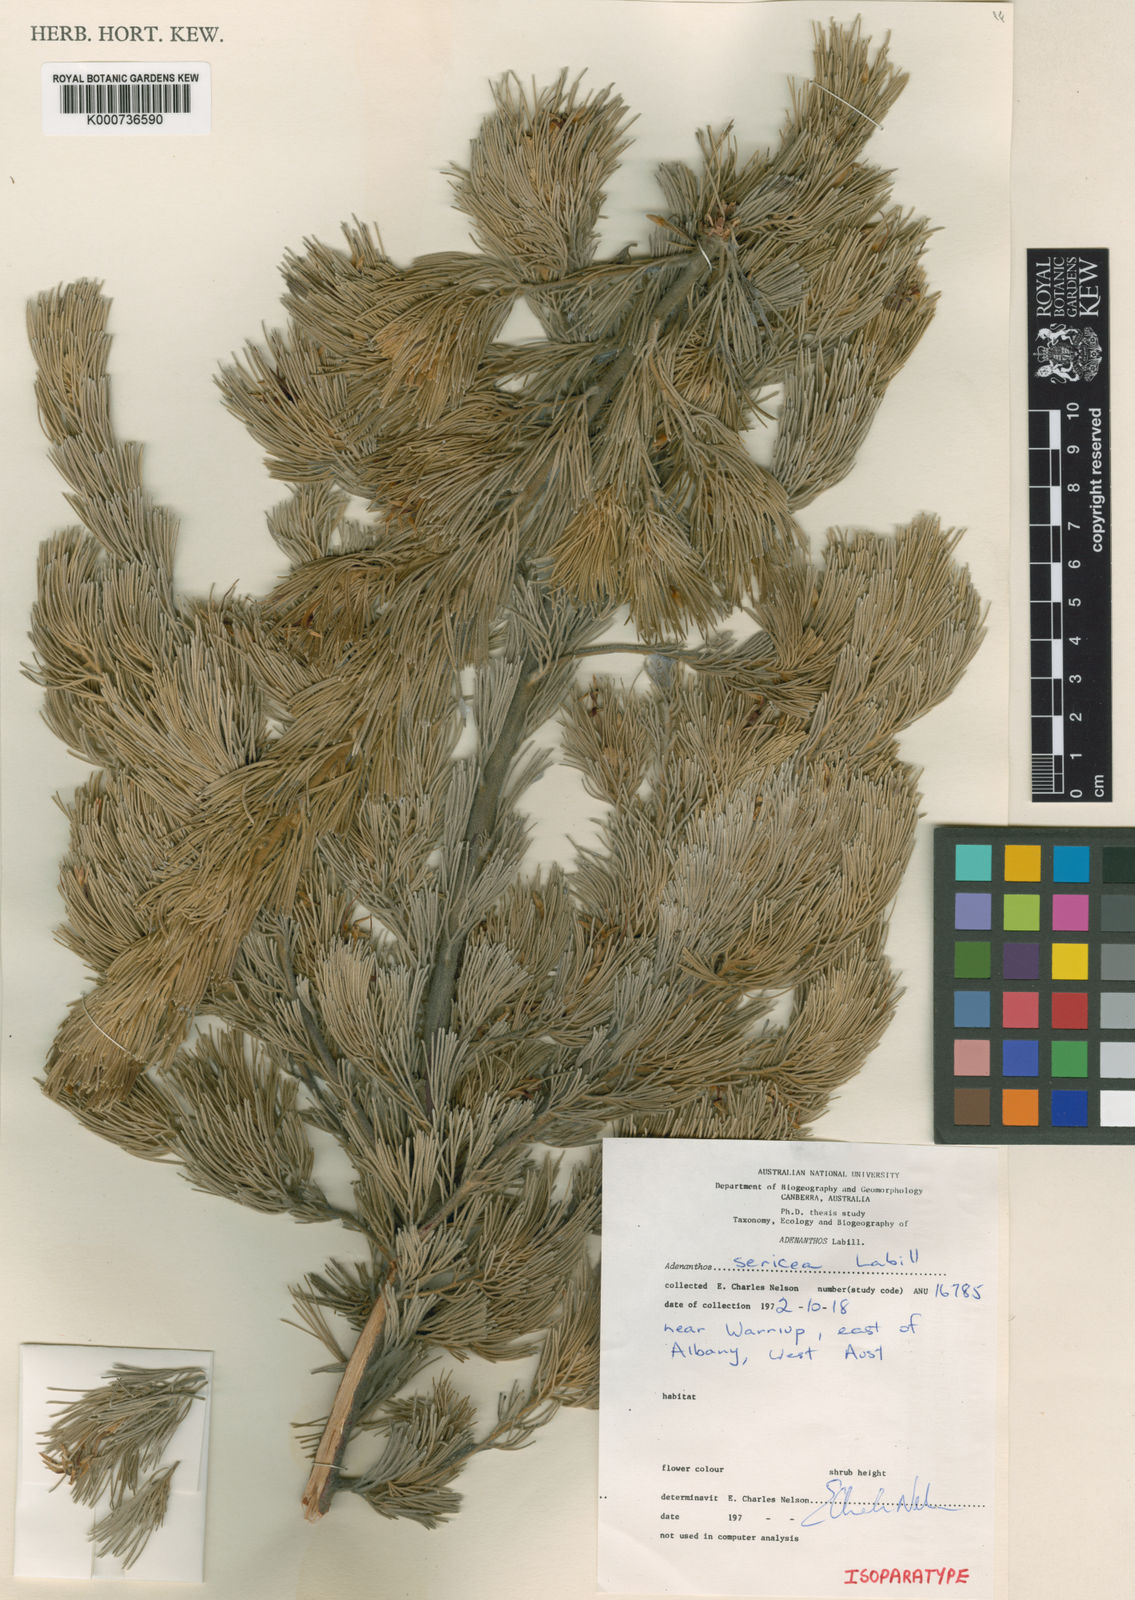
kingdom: Plantae
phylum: Tracheophyta
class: Magnoliopsida
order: Proteales
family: Proteaceae
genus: Adenanthos
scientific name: Adenanthos sericeus
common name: Coastal woollybush
